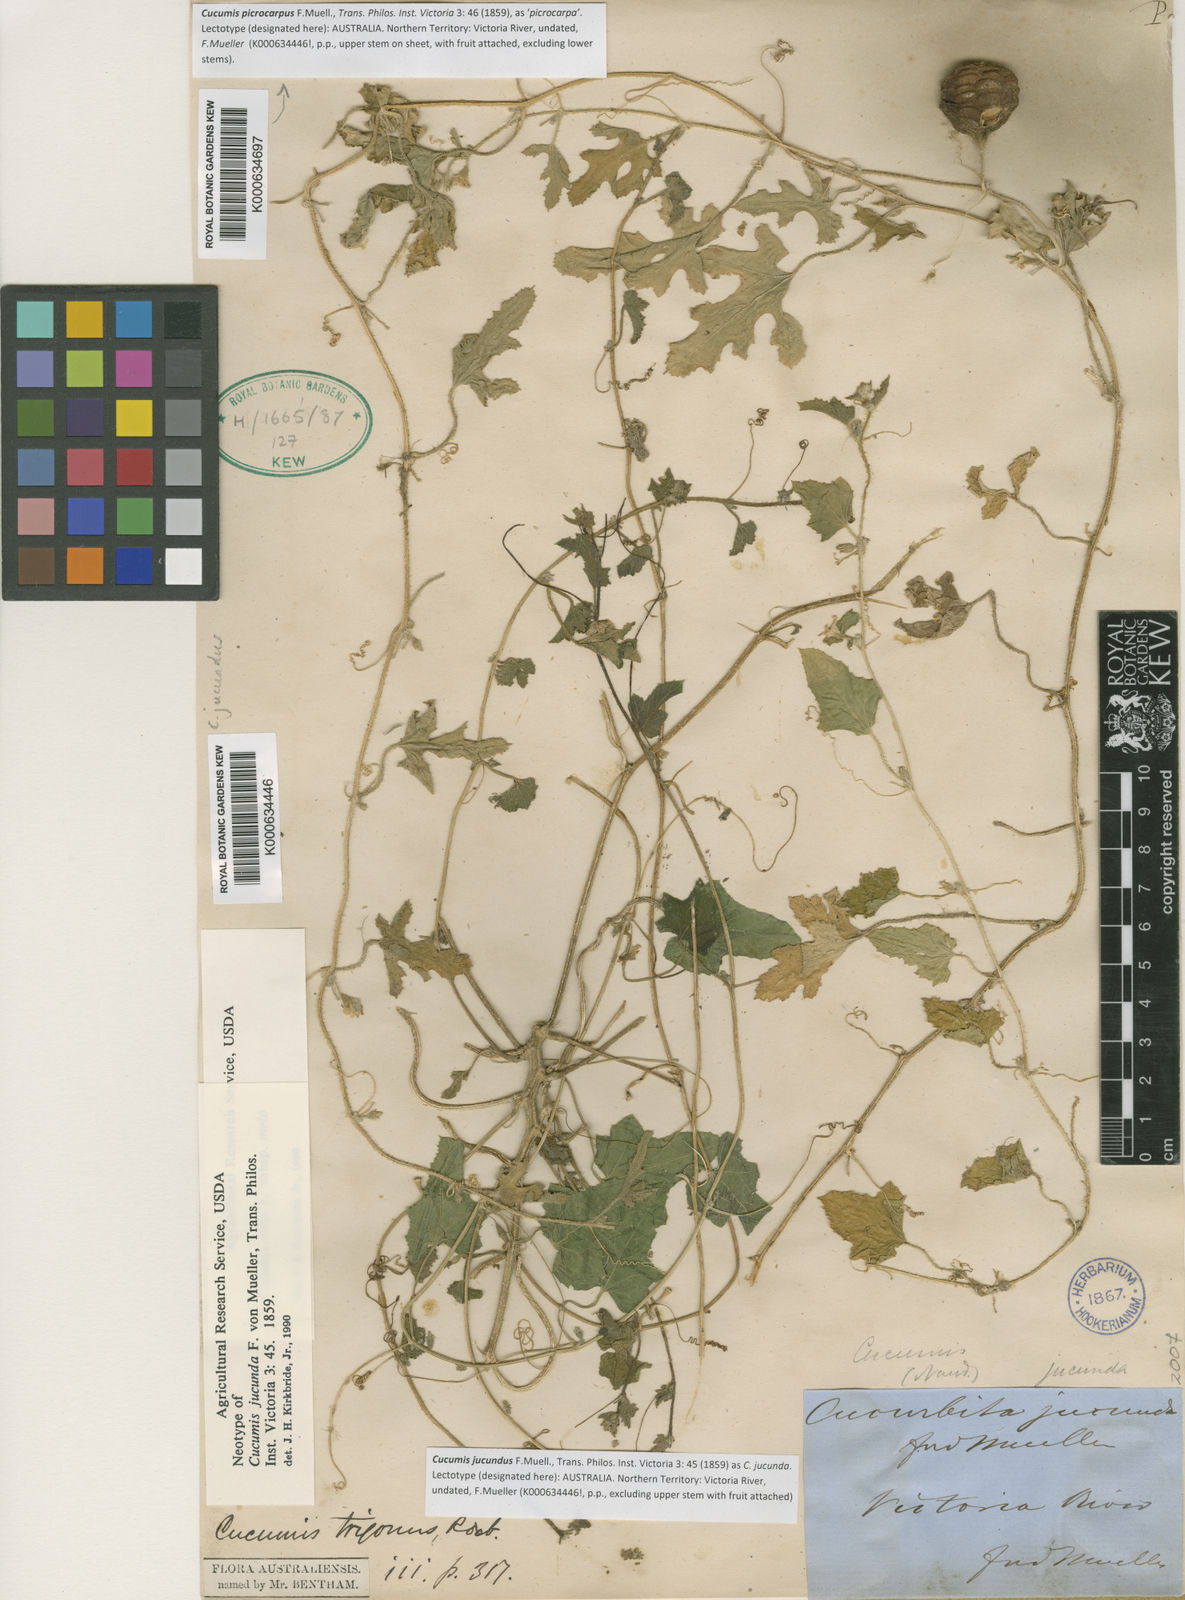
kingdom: Plantae
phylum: Tracheophyta
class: Magnoliopsida
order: Cucurbitales
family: Cucurbitaceae
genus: Cucumis
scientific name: Cucumis
